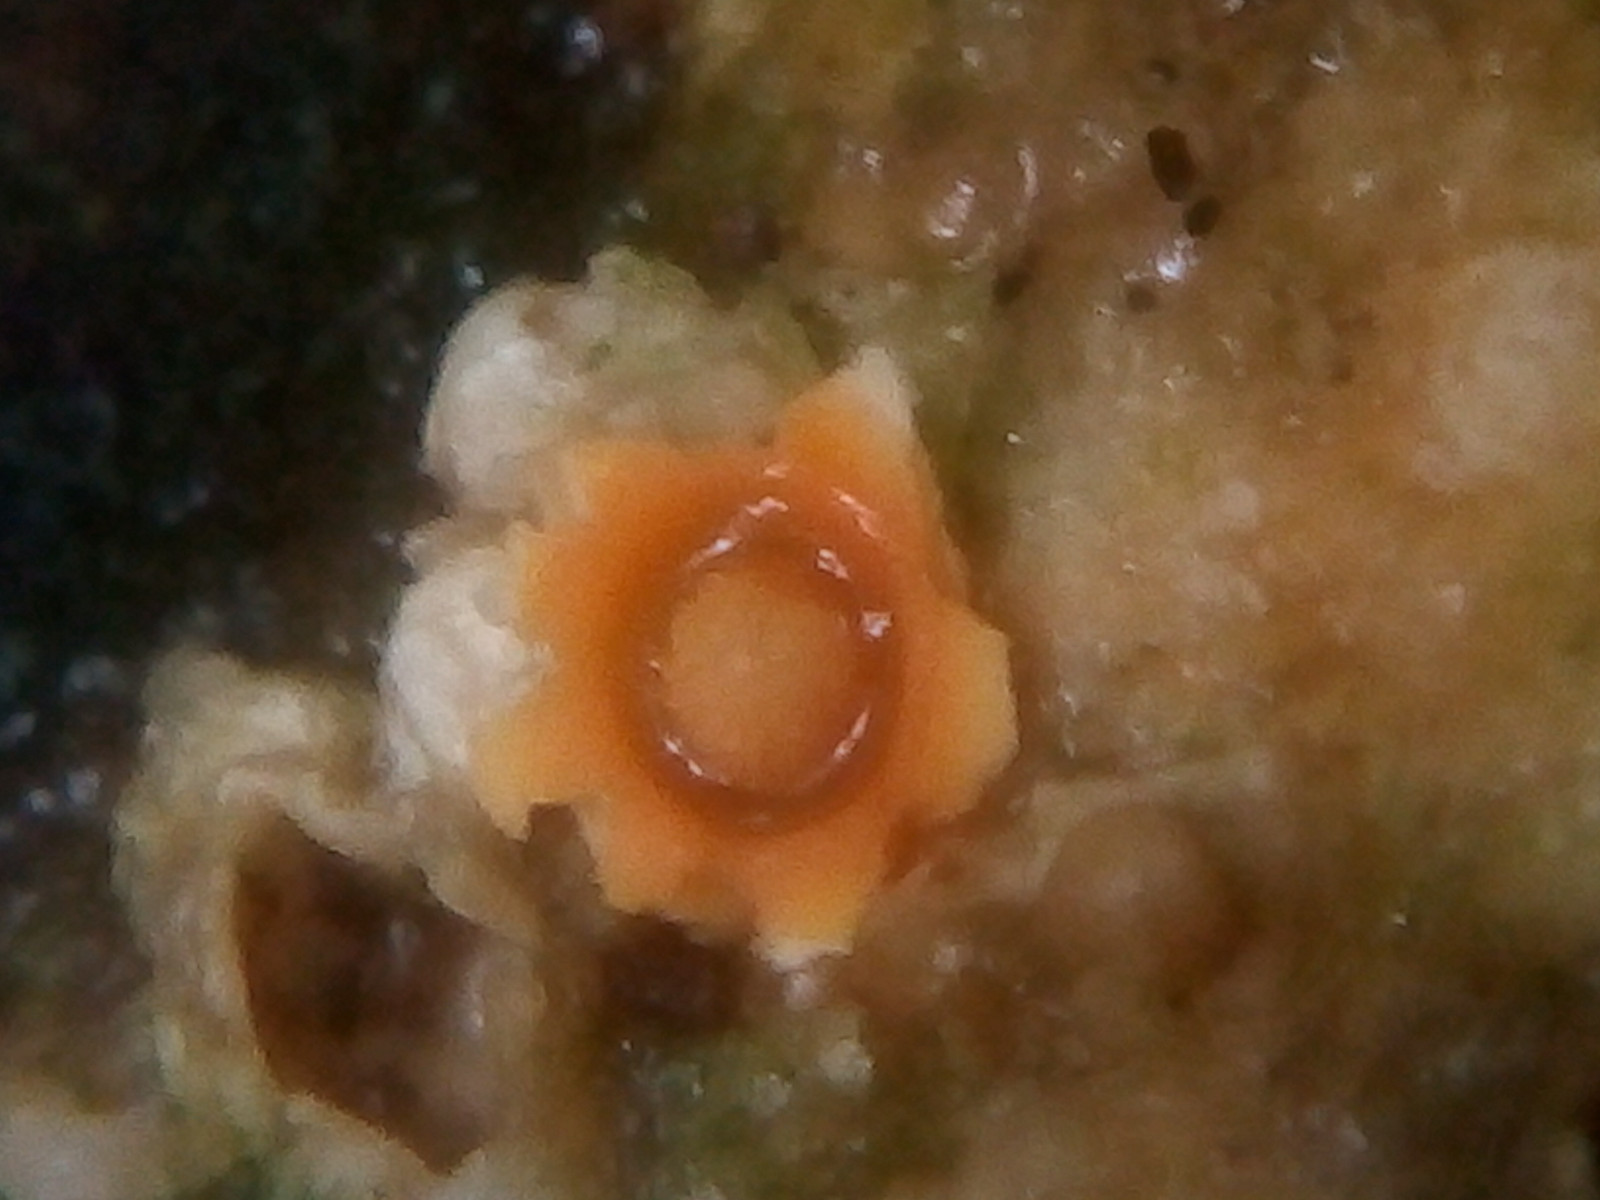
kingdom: Fungi
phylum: Basidiomycota
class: Agaricomycetes
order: Geastrales
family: Geastraceae
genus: Sphaerobolus
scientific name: Sphaerobolus stellatus
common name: bombekaster
